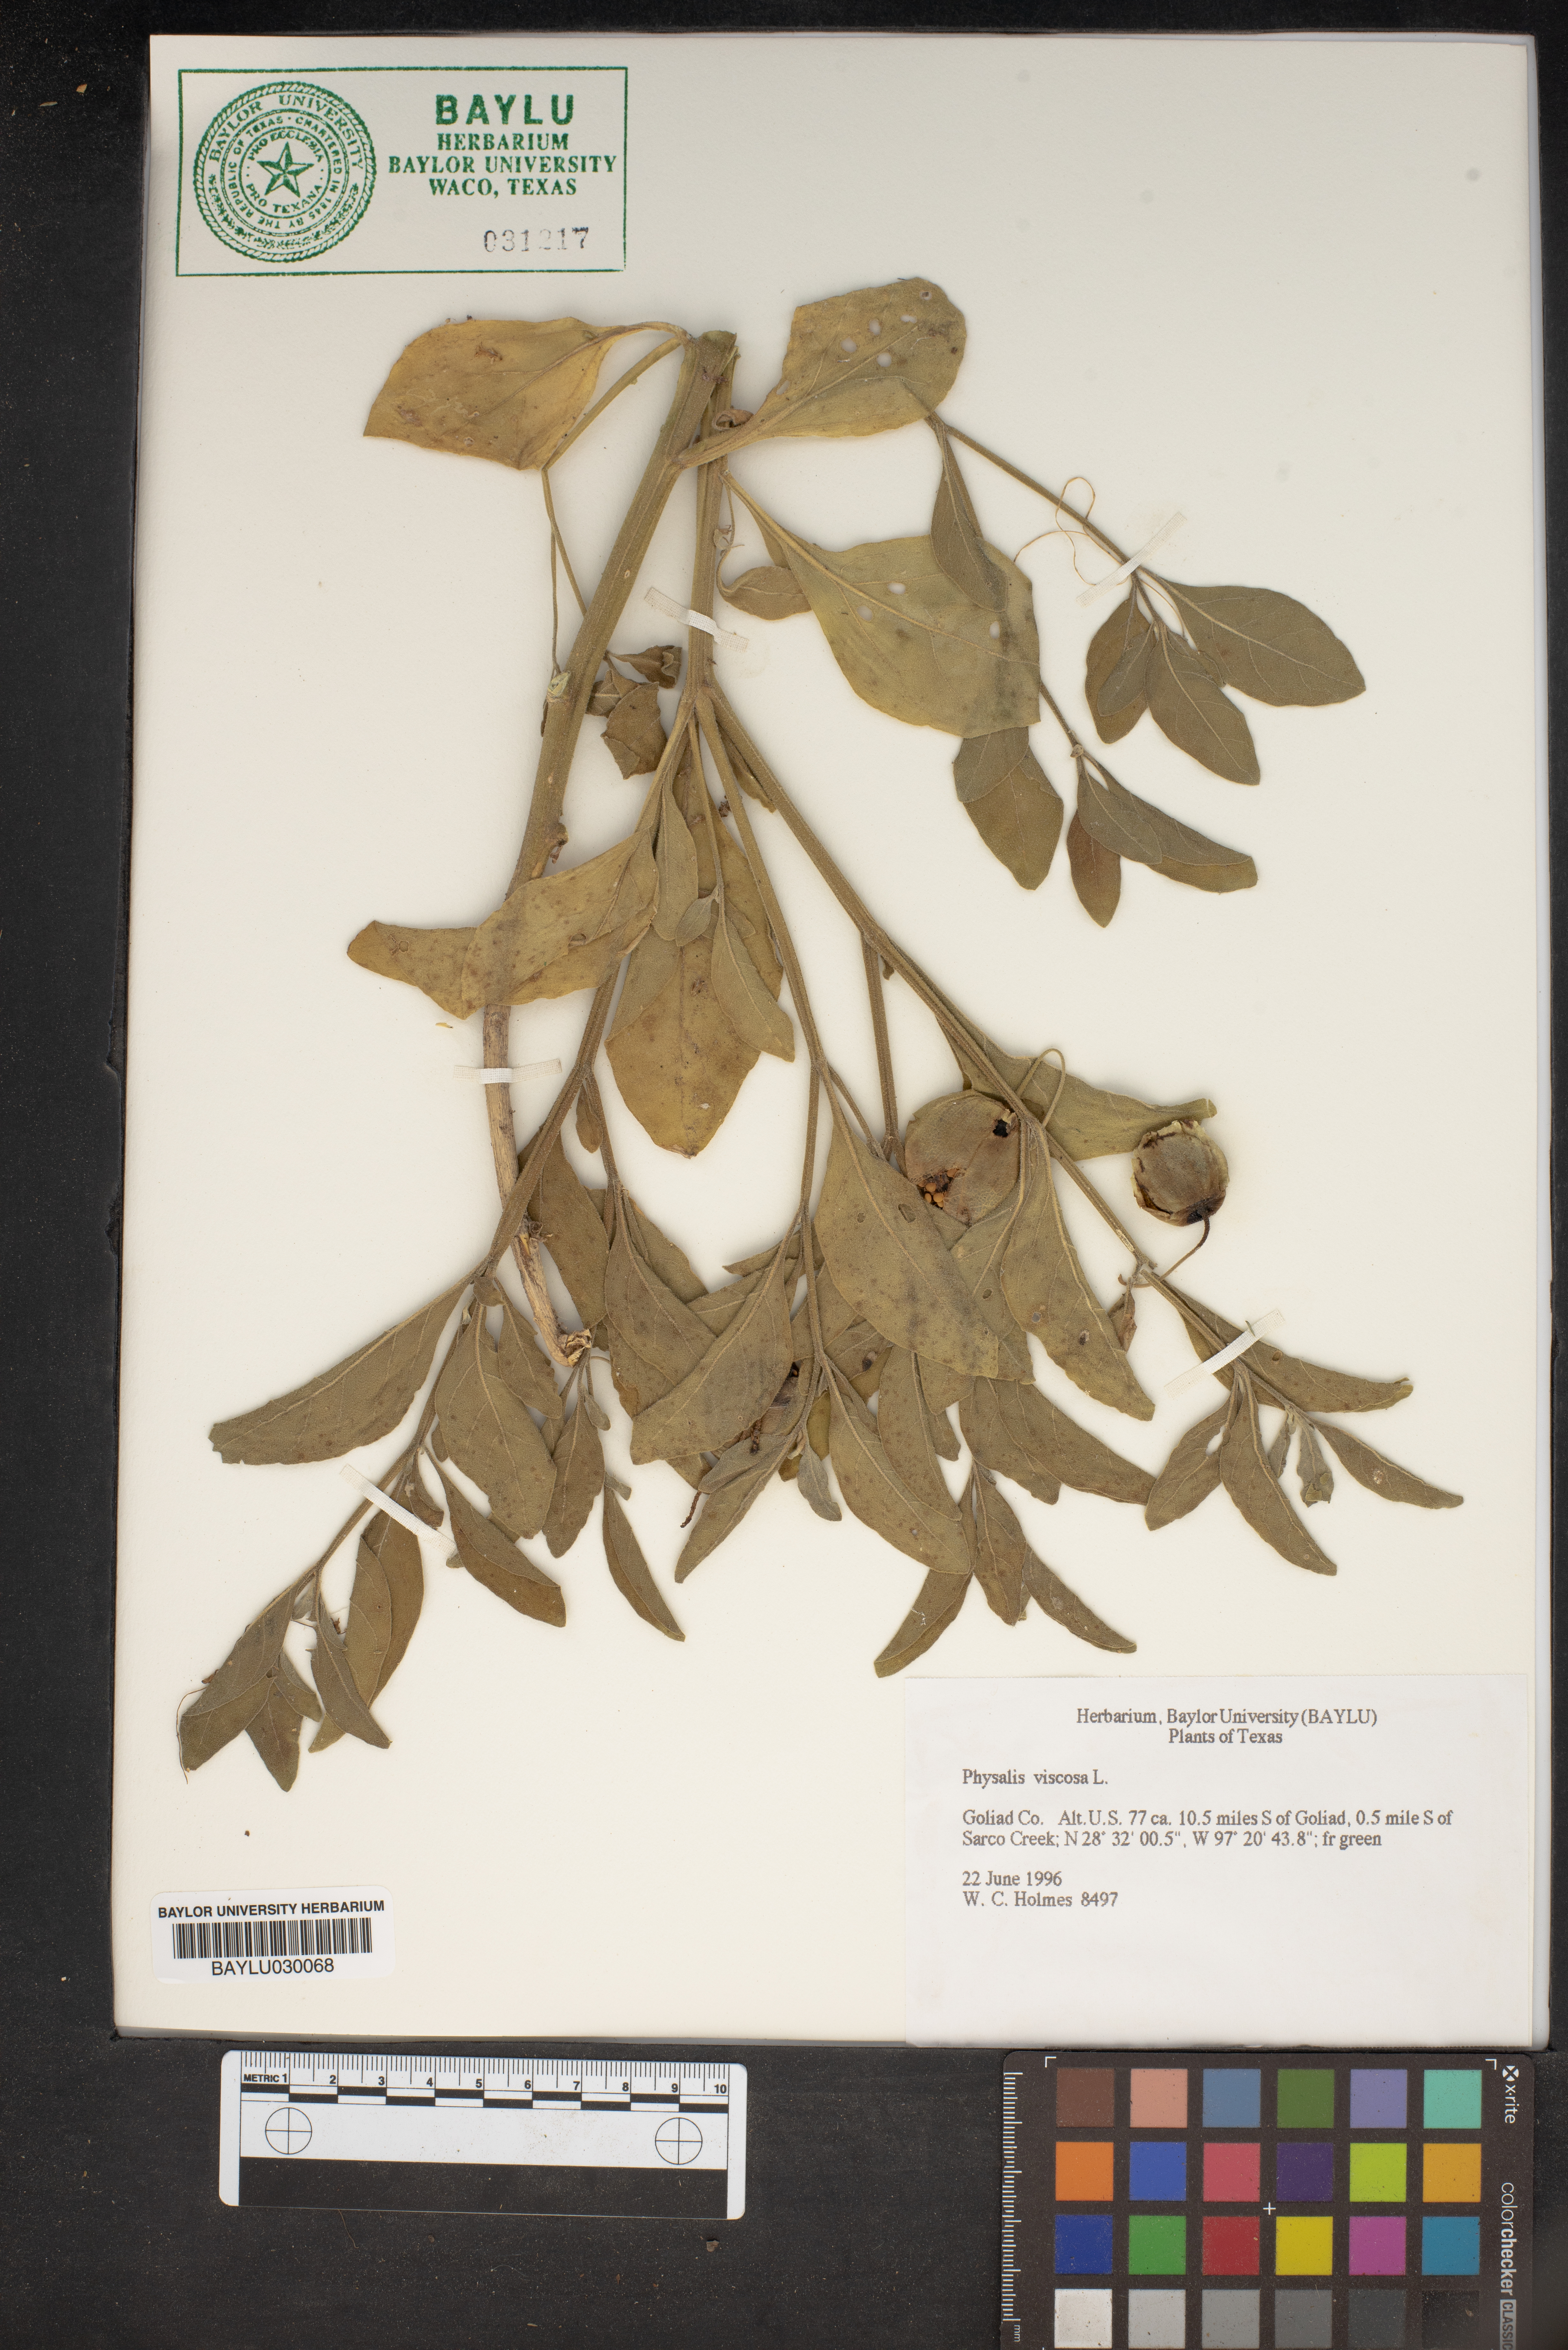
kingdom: Plantae
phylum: Tracheophyta
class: Magnoliopsida
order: Solanales
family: Solanaceae
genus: Physalis
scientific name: Physalis viscosa
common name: Stellate ground-cherry
